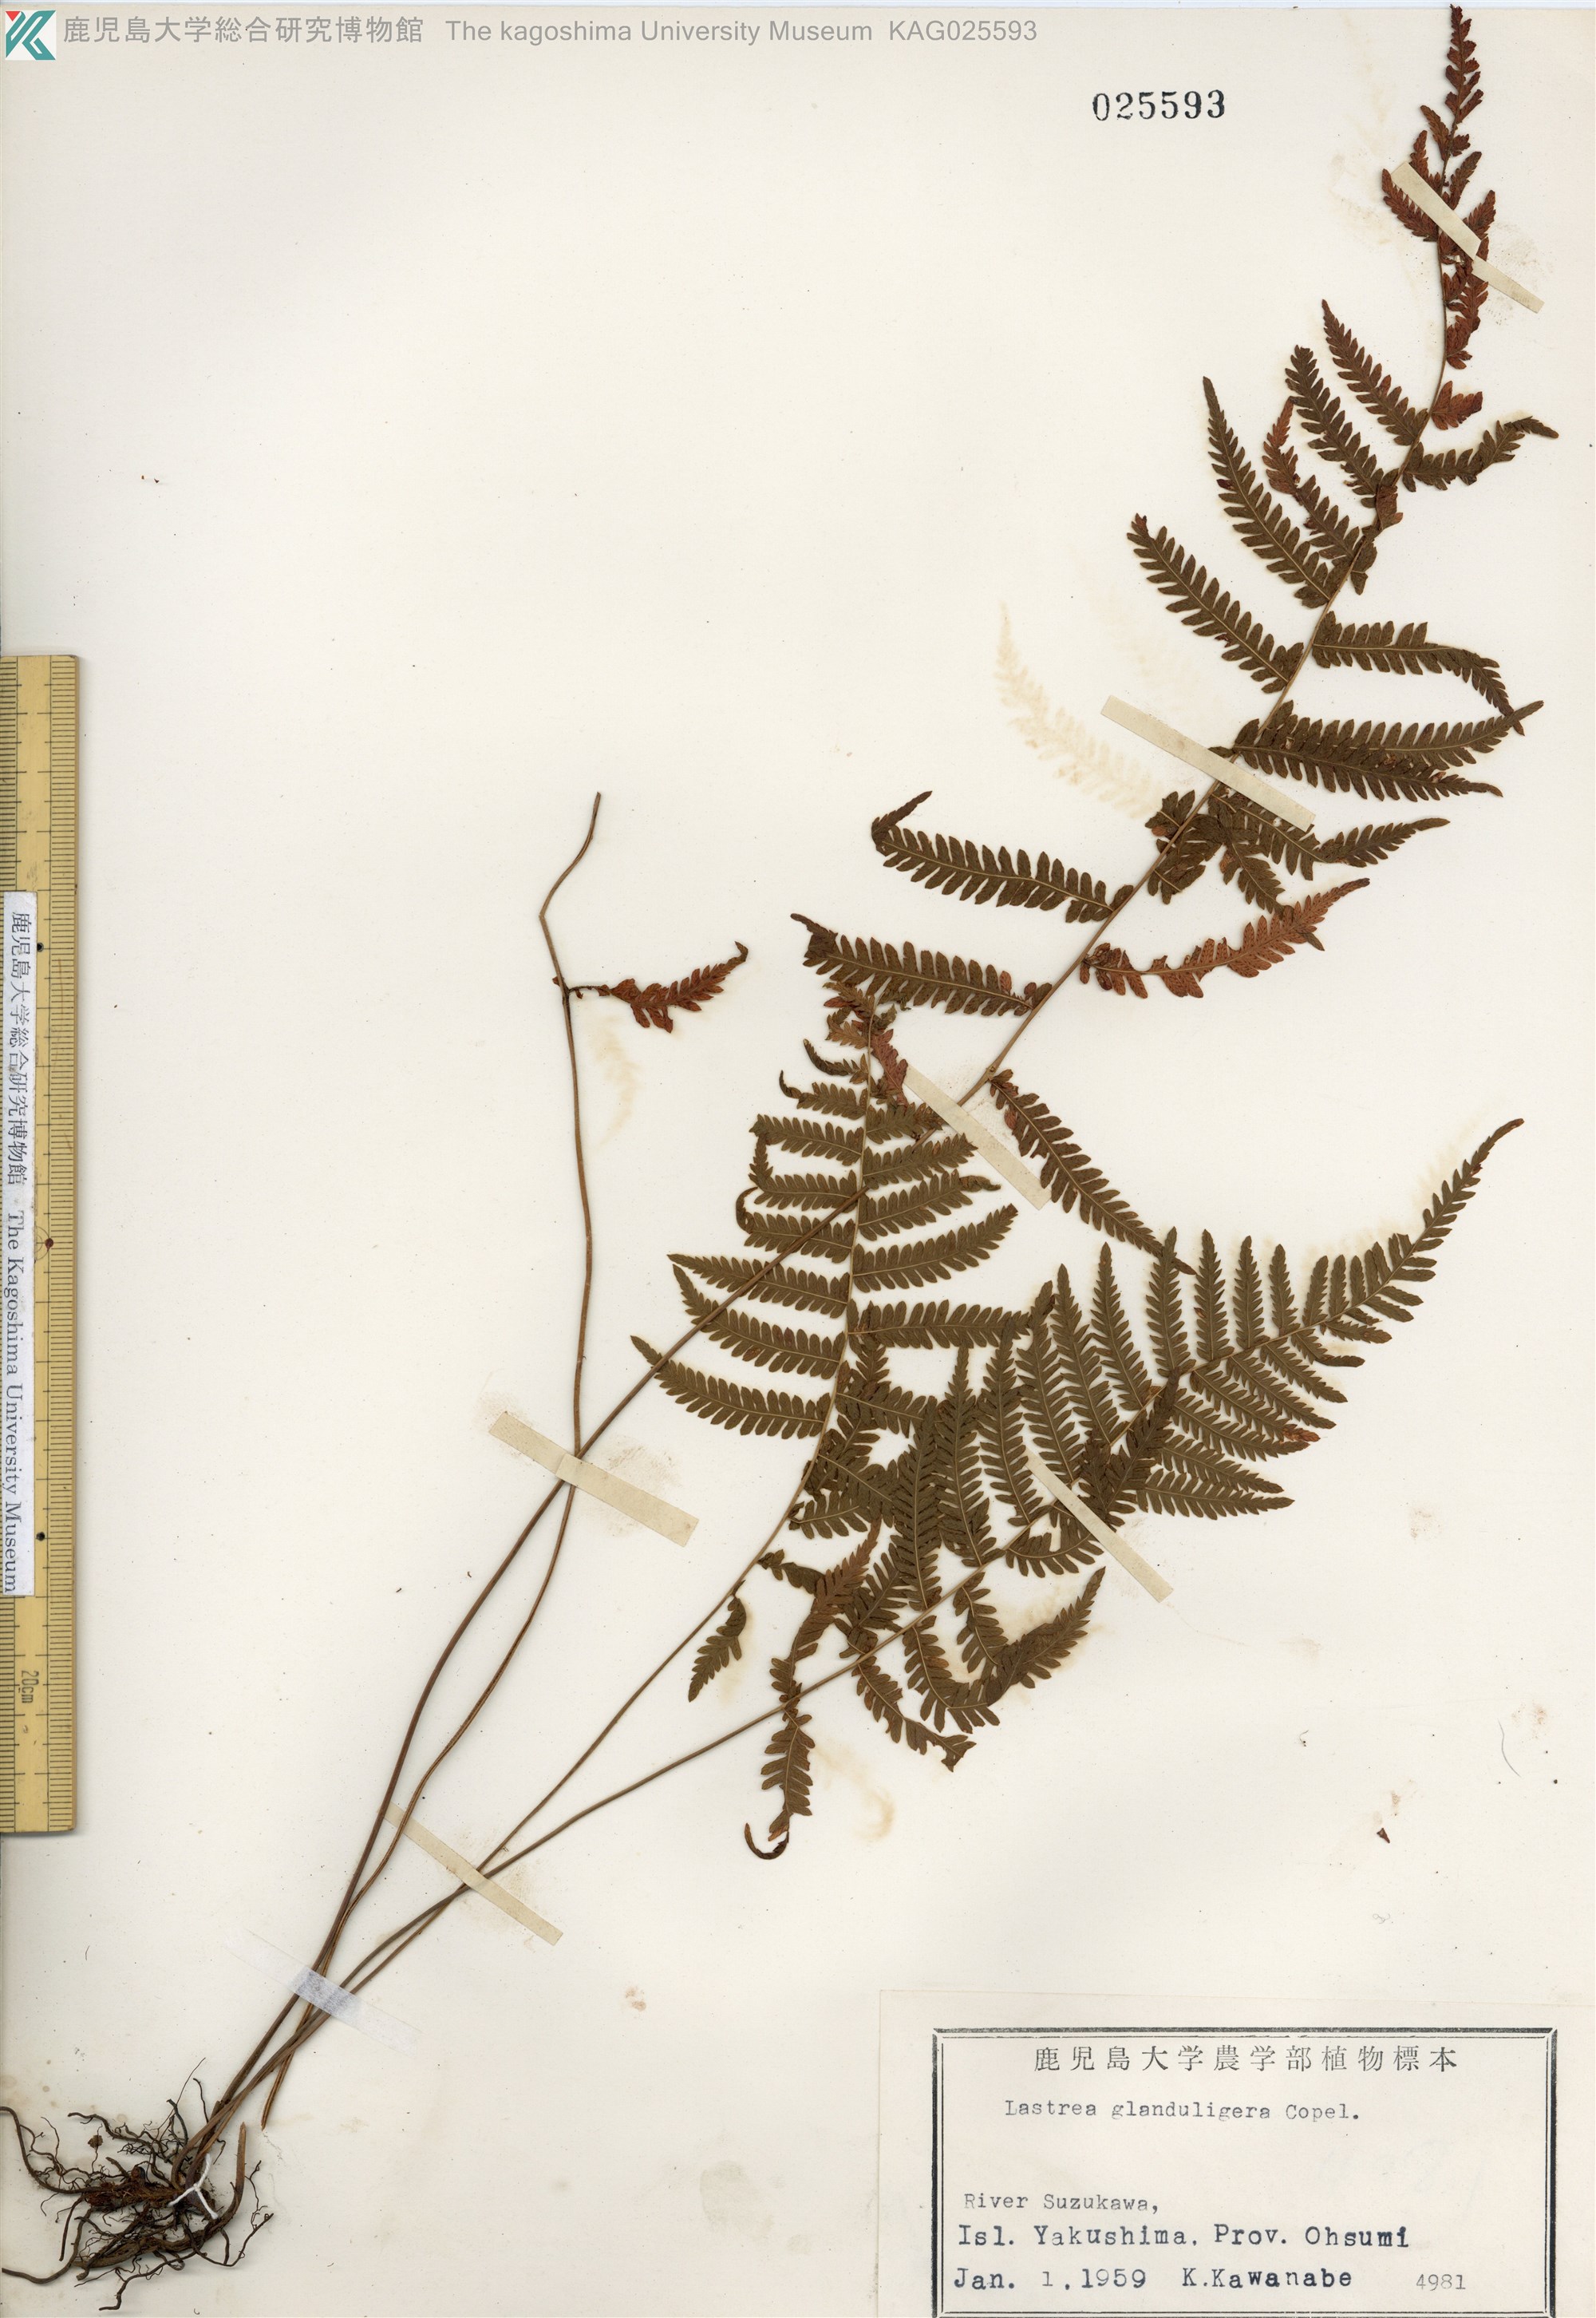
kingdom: Plantae
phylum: Tracheophyta
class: Polypodiopsida
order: Polypodiales
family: Thelypteridaceae
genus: Amauropelta
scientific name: Amauropelta glanduligera
